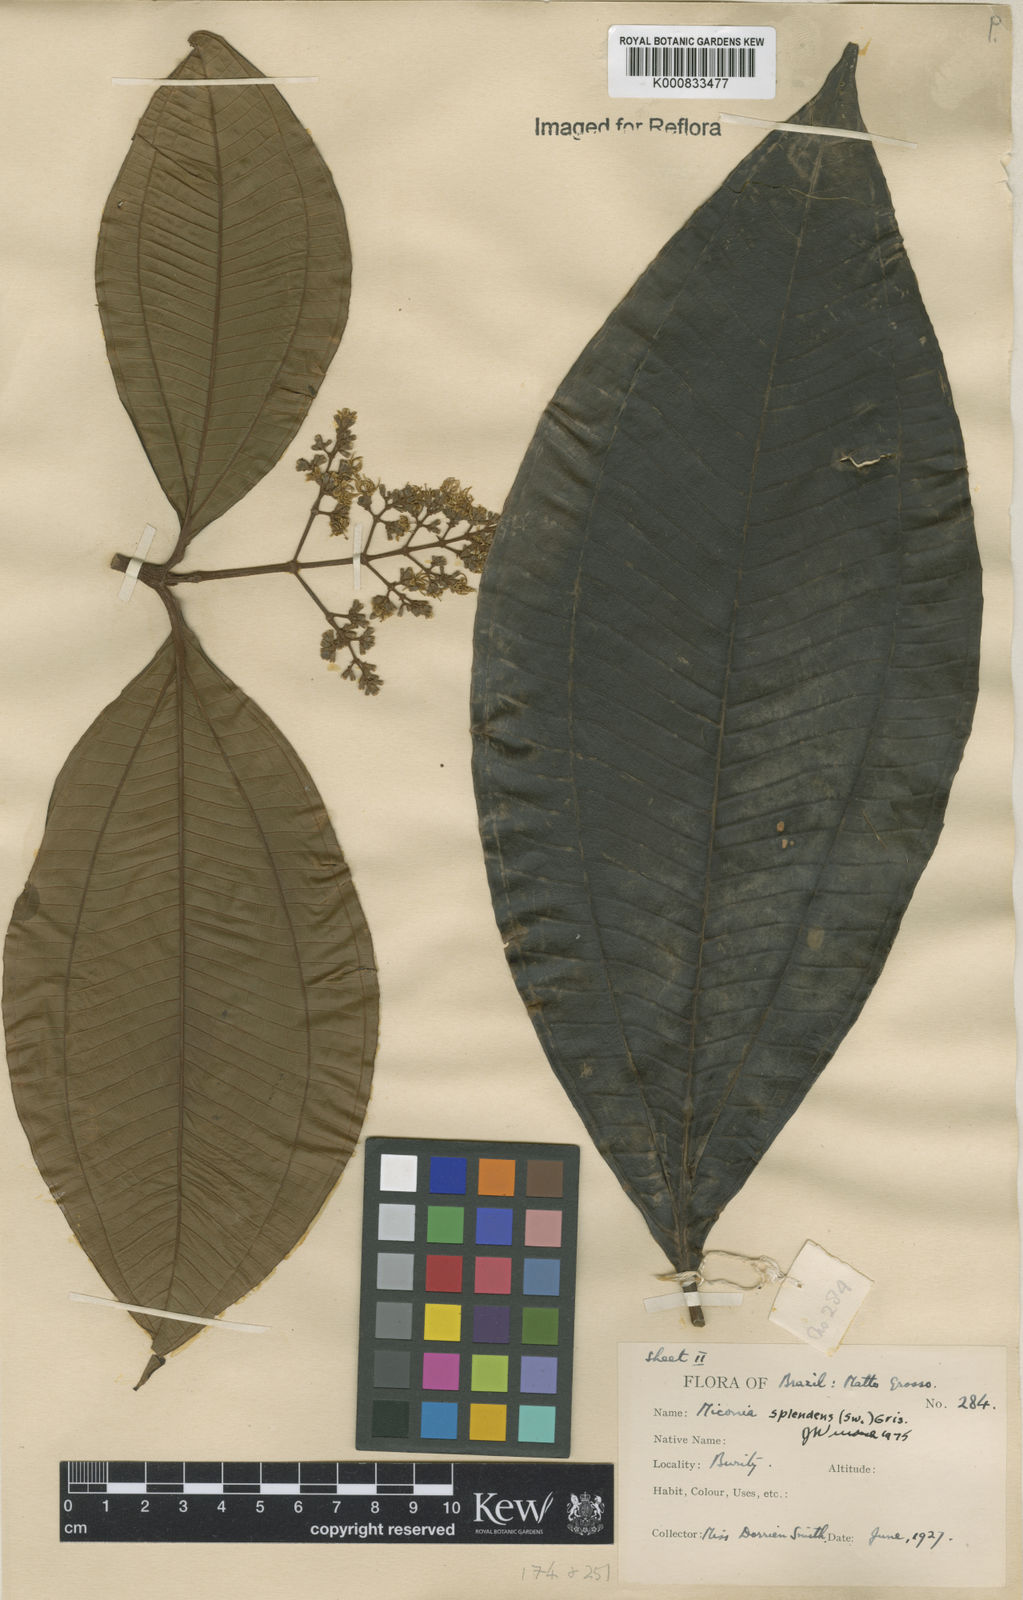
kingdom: Plantae
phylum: Tracheophyta
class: Magnoliopsida
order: Myrtales
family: Melastomataceae
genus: Miconia
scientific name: Miconia splendens
